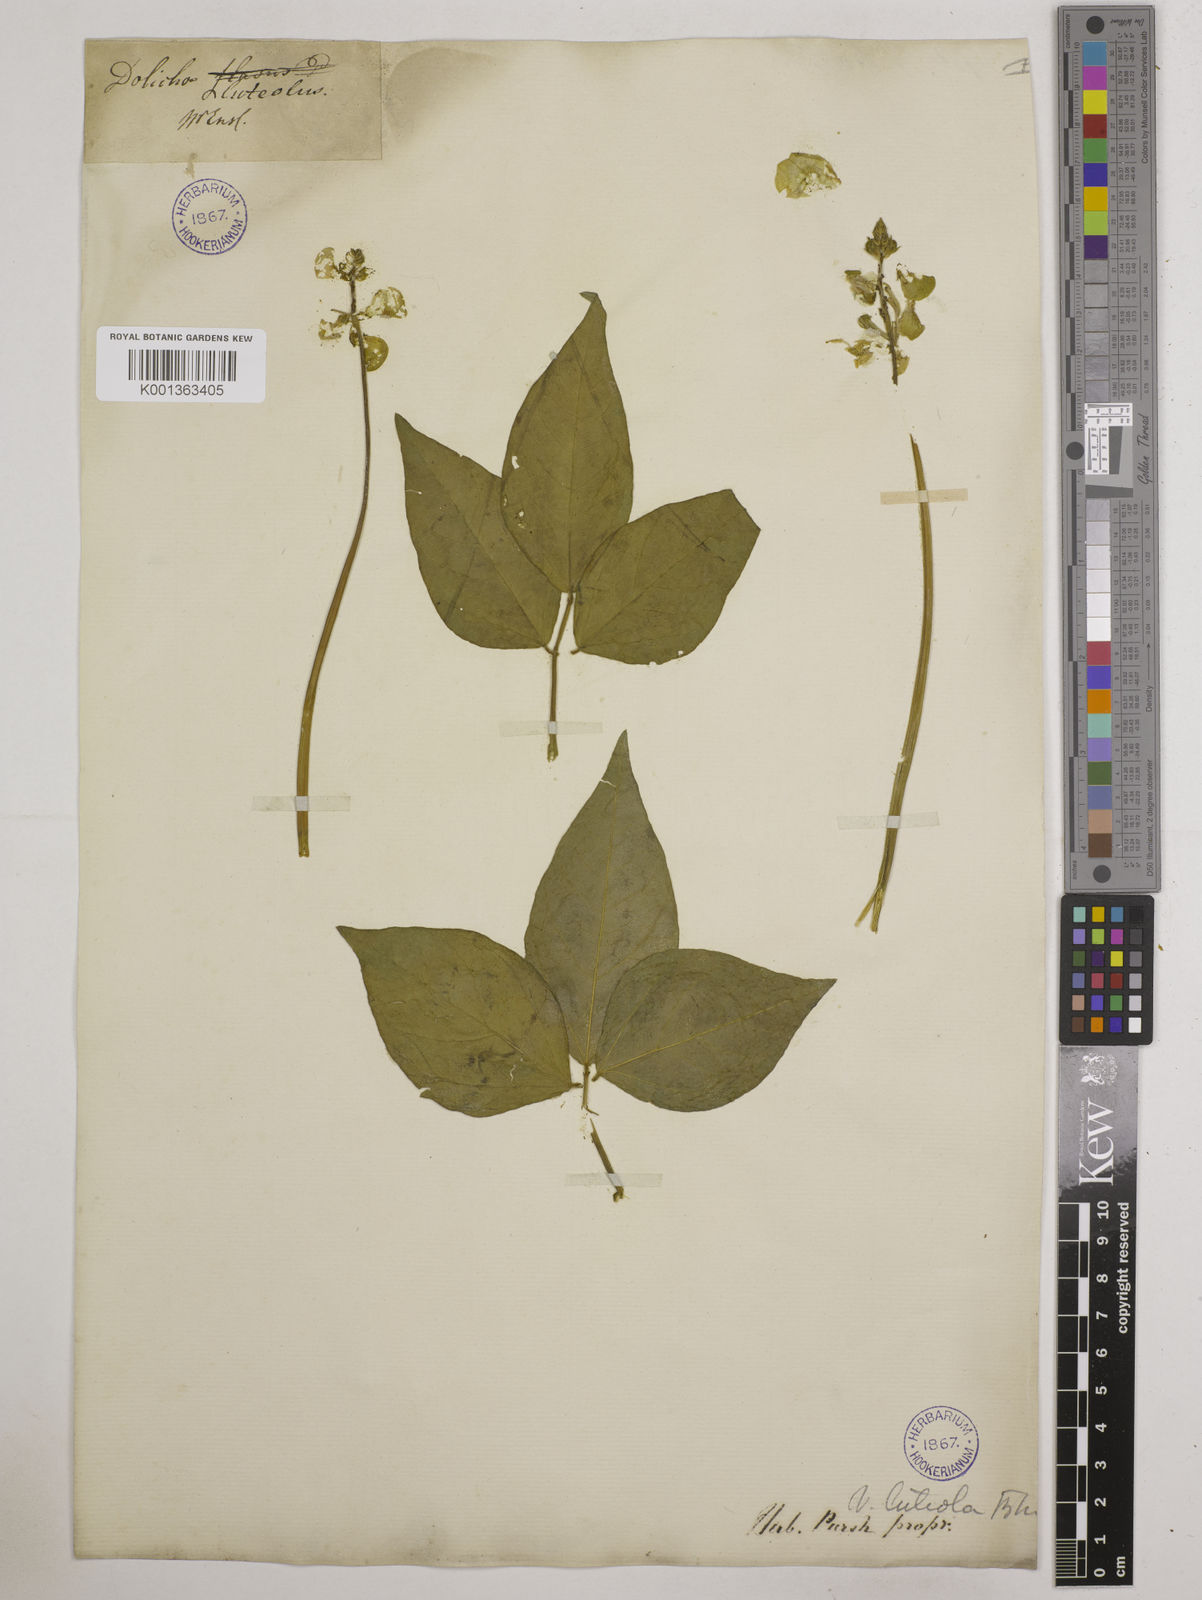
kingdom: Plantae
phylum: Tracheophyta
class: Magnoliopsida
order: Fabales
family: Fabaceae
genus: Vigna
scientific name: Vigna luteola
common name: Hairypod cowpea
